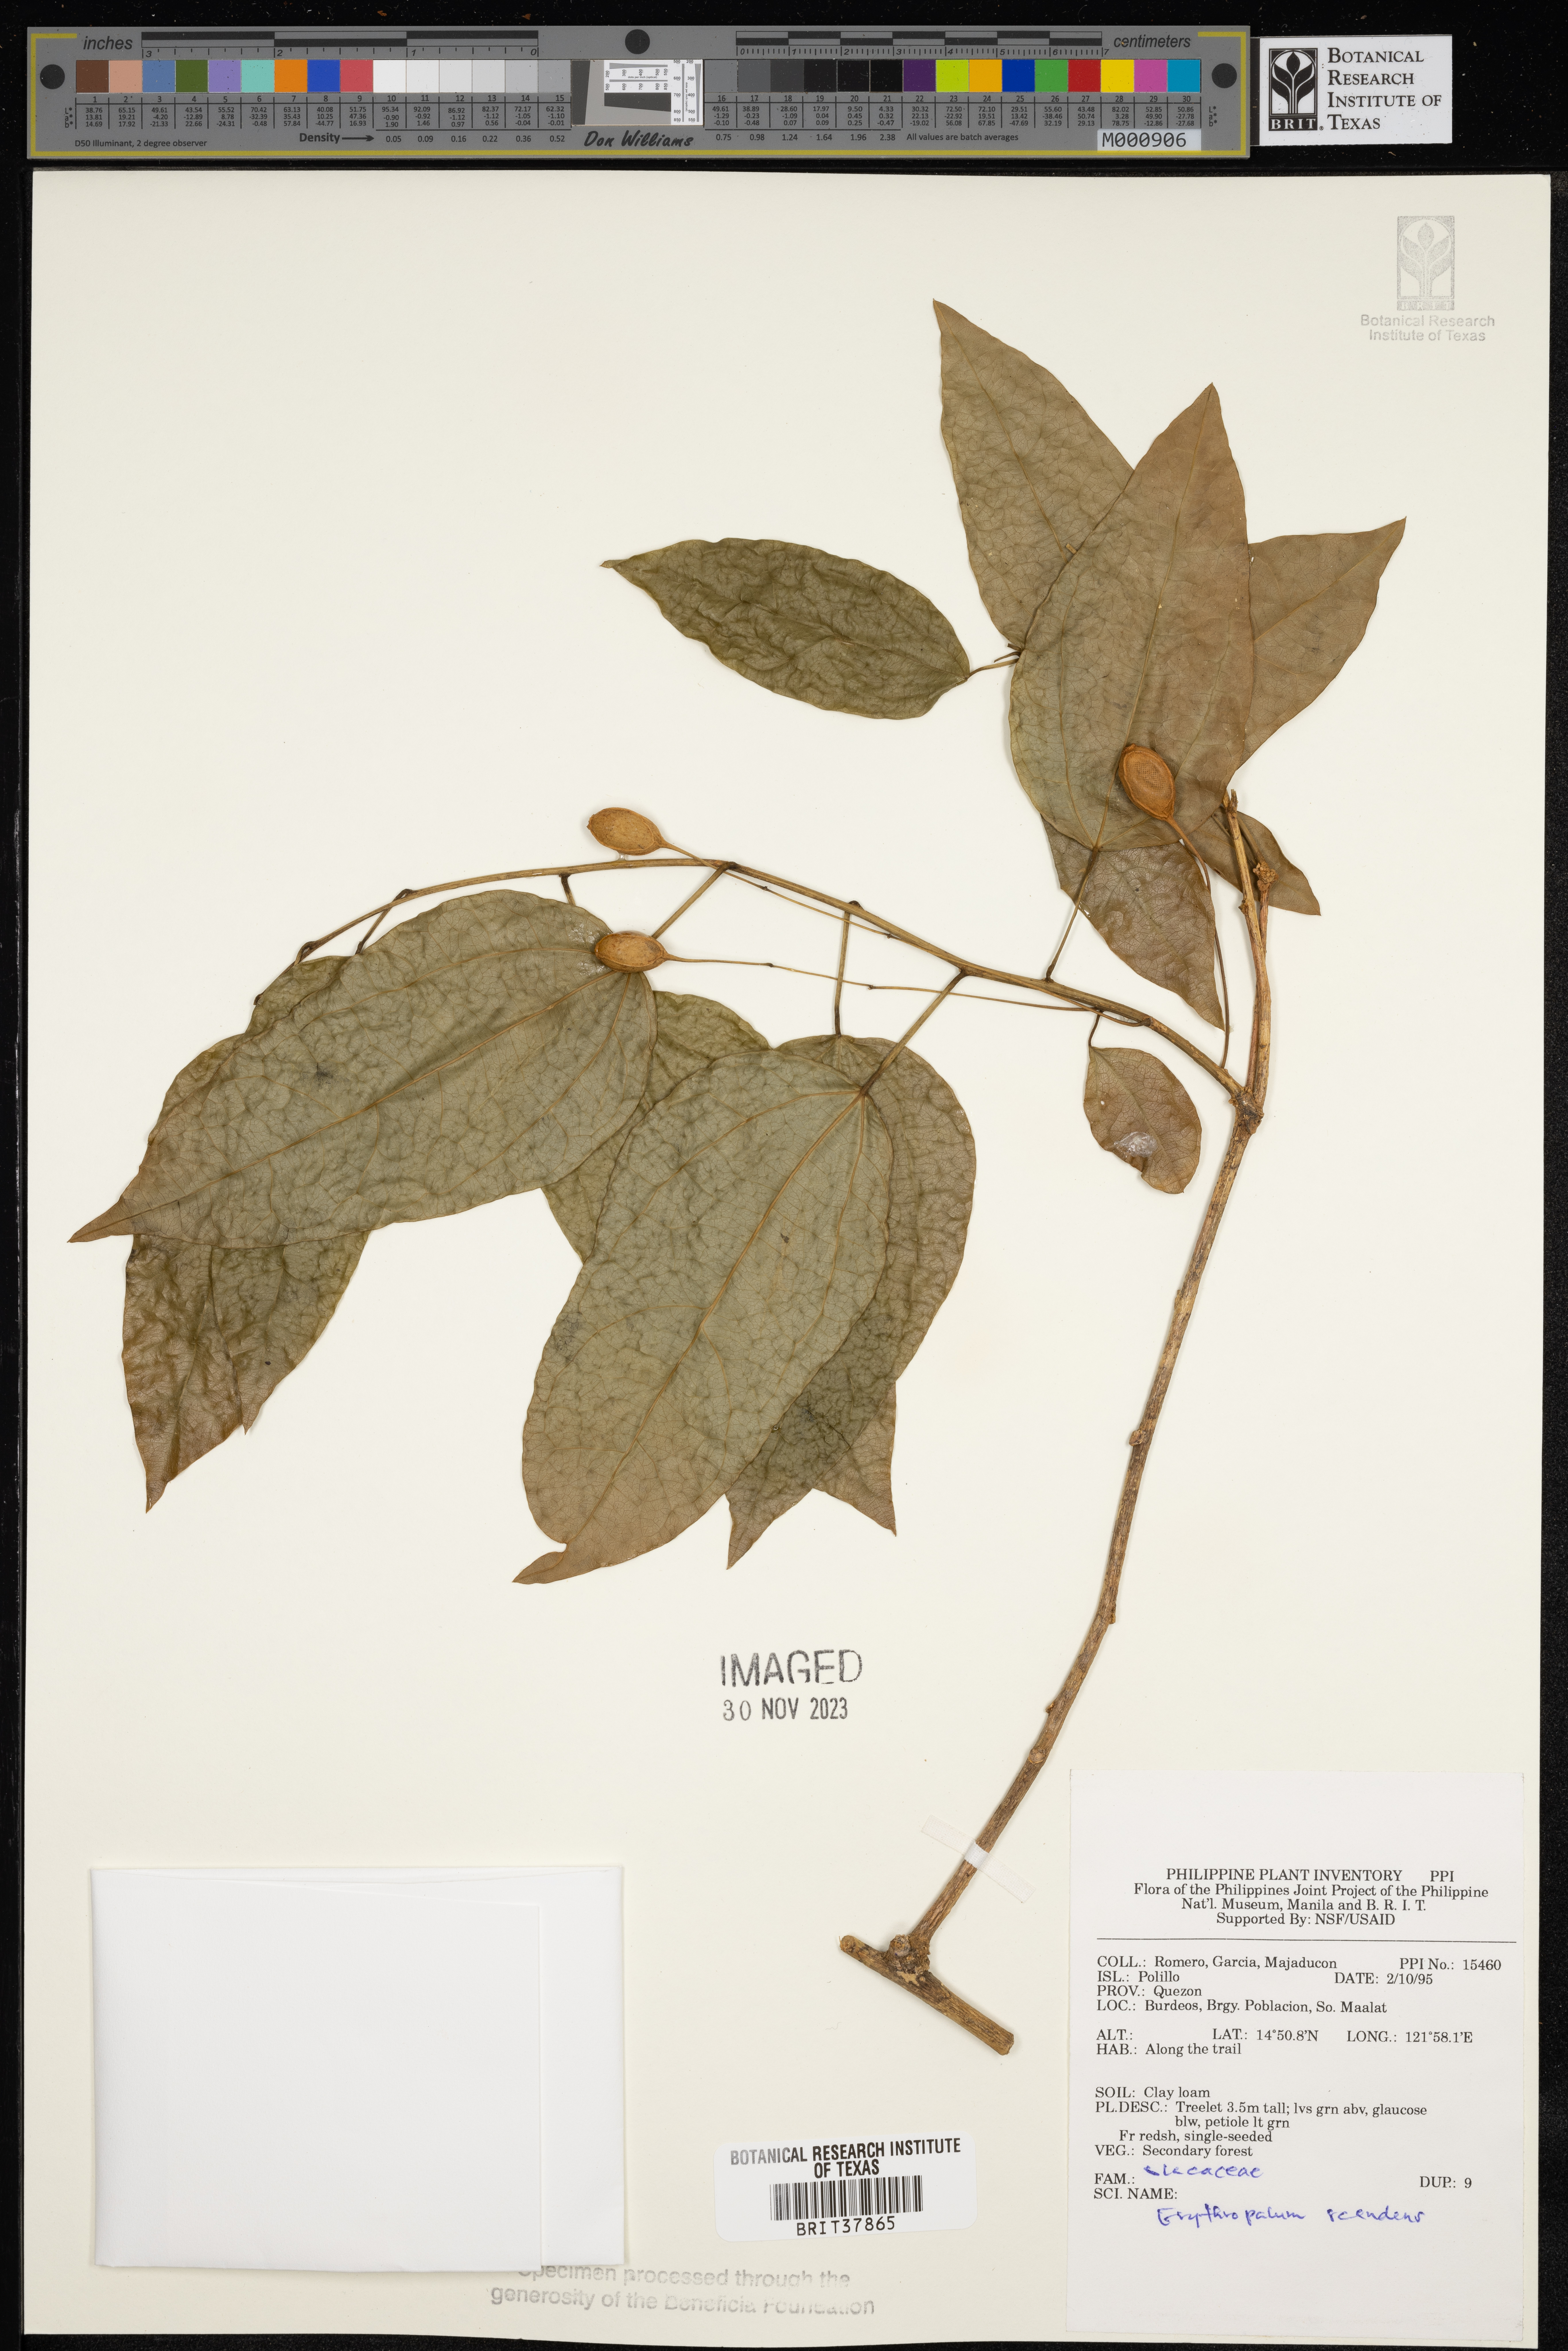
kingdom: Plantae
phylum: Tracheophyta
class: Magnoliopsida
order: Santalales
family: Erythropalaceae
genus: Erythropalum
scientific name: Erythropalum scandens
